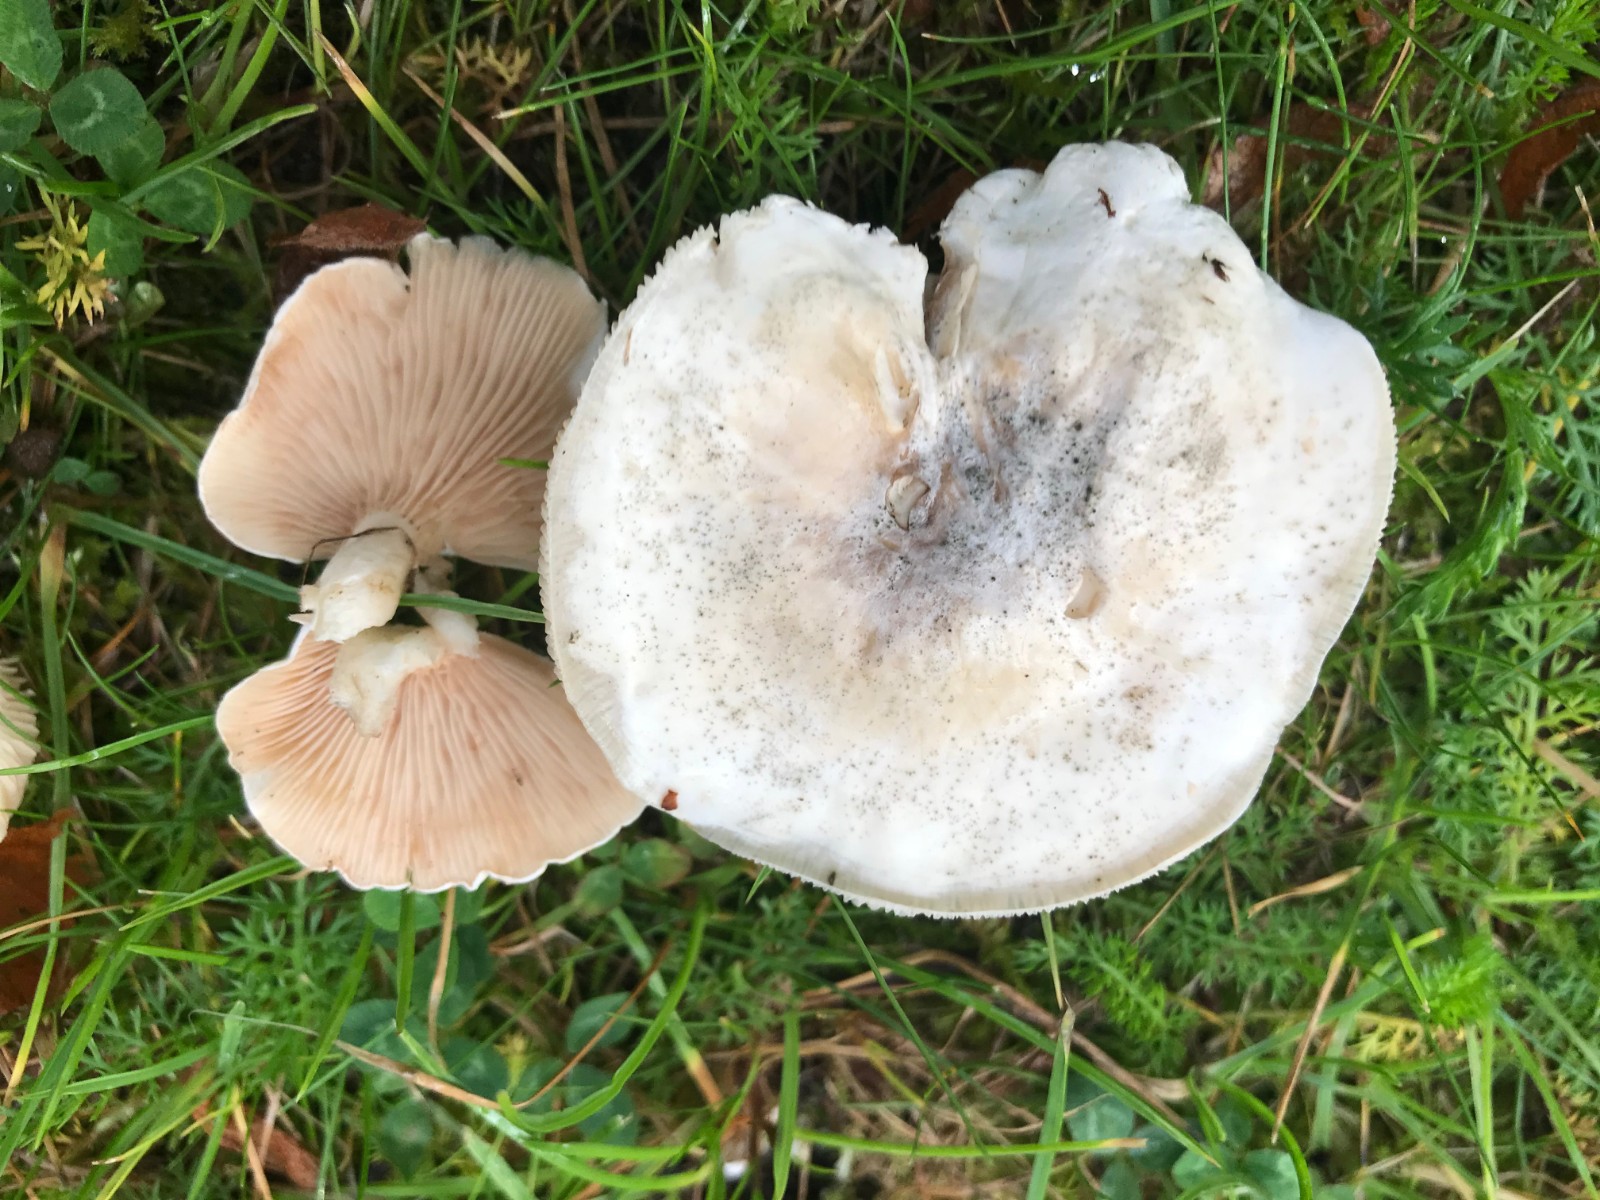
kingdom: Fungi
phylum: Basidiomycota
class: Agaricomycetes
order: Agaricales
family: Entolomataceae
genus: Clitopilus
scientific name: Clitopilus prunulus
